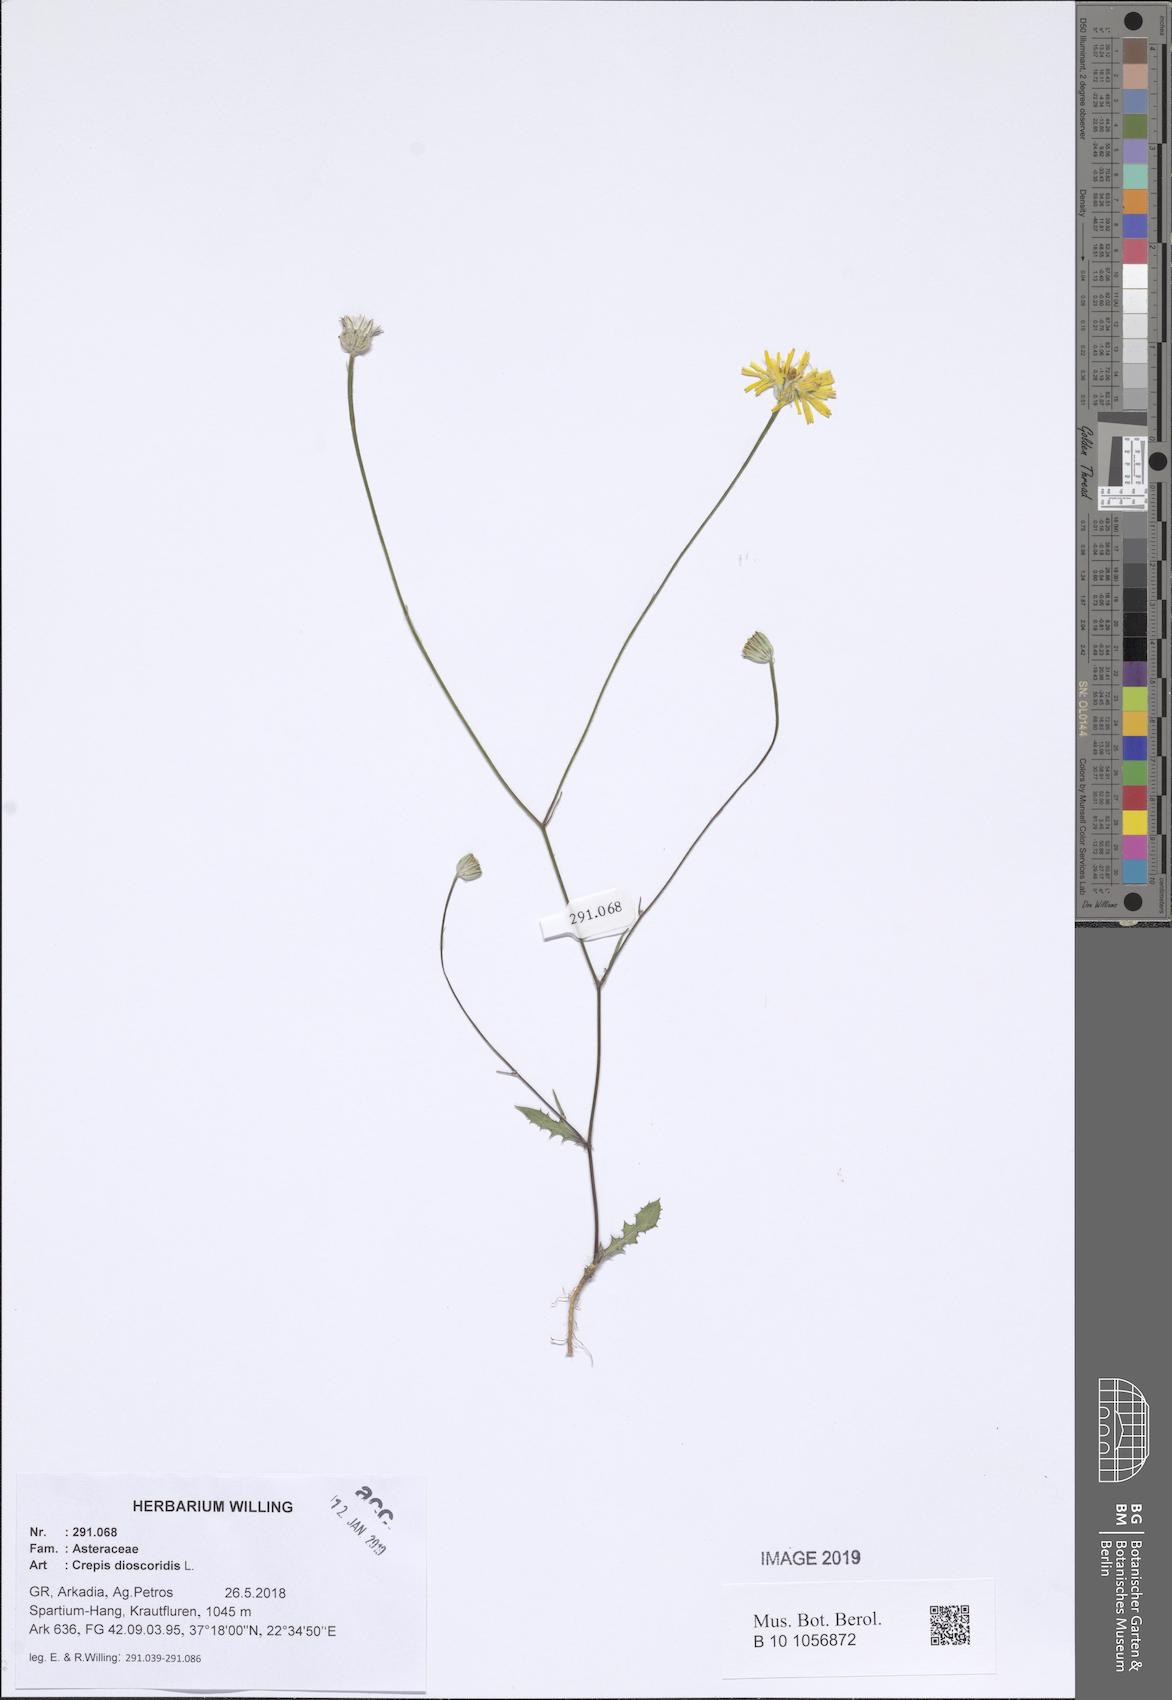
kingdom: Plantae
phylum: Tracheophyta
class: Magnoliopsida
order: Asterales
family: Asteraceae
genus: Crepis
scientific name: Crepis dioscoridis
